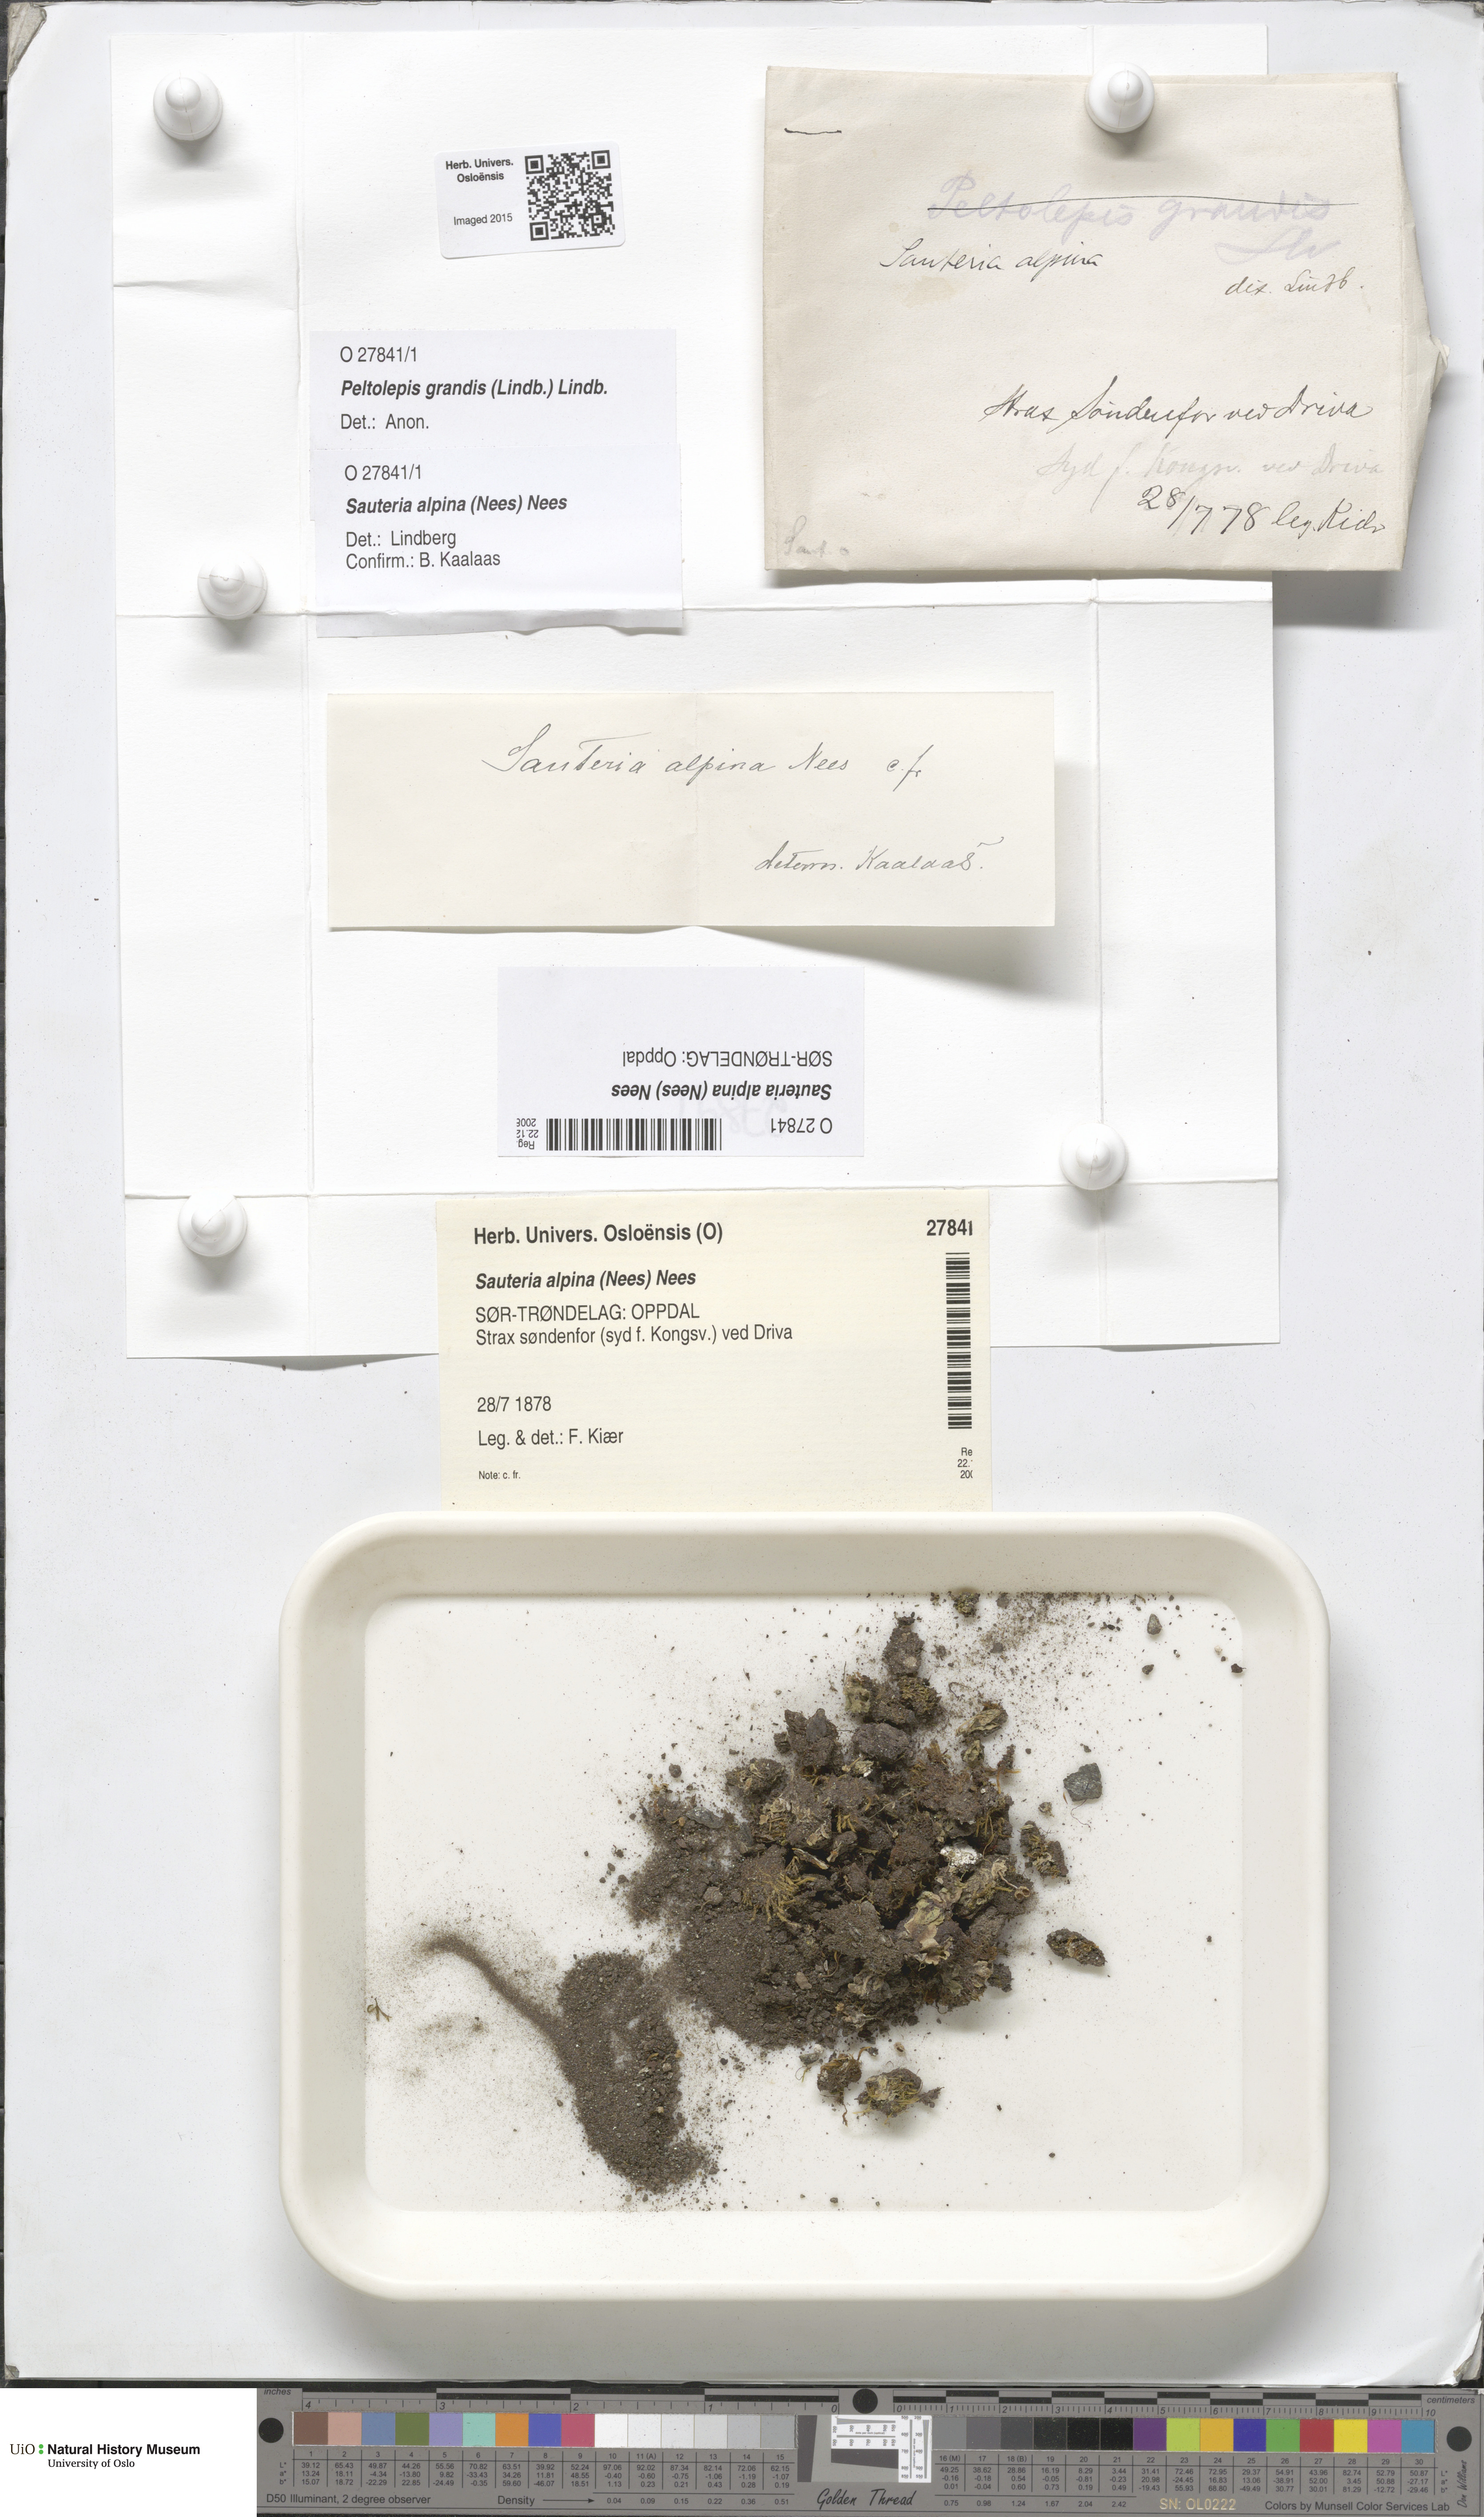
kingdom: Plantae
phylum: Marchantiophyta
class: Marchantiopsida
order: Marchantiales
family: Cleveaceae
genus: Sauteria
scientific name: Sauteria alpina
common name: Snow lungwort
